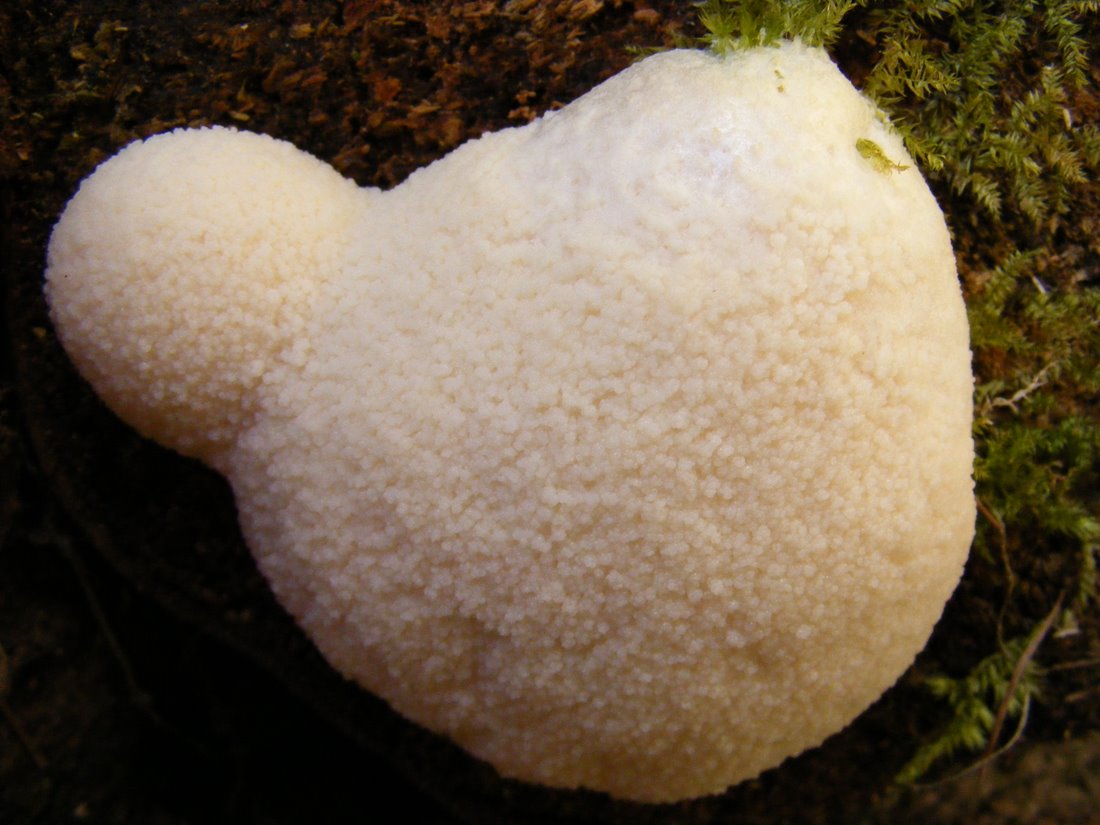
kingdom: Protozoa
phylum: Mycetozoa
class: Myxomycetes
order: Cribrariales
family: Tubiferaceae
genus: Reticularia
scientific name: Reticularia lycoperdon
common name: skinnende støvpude
